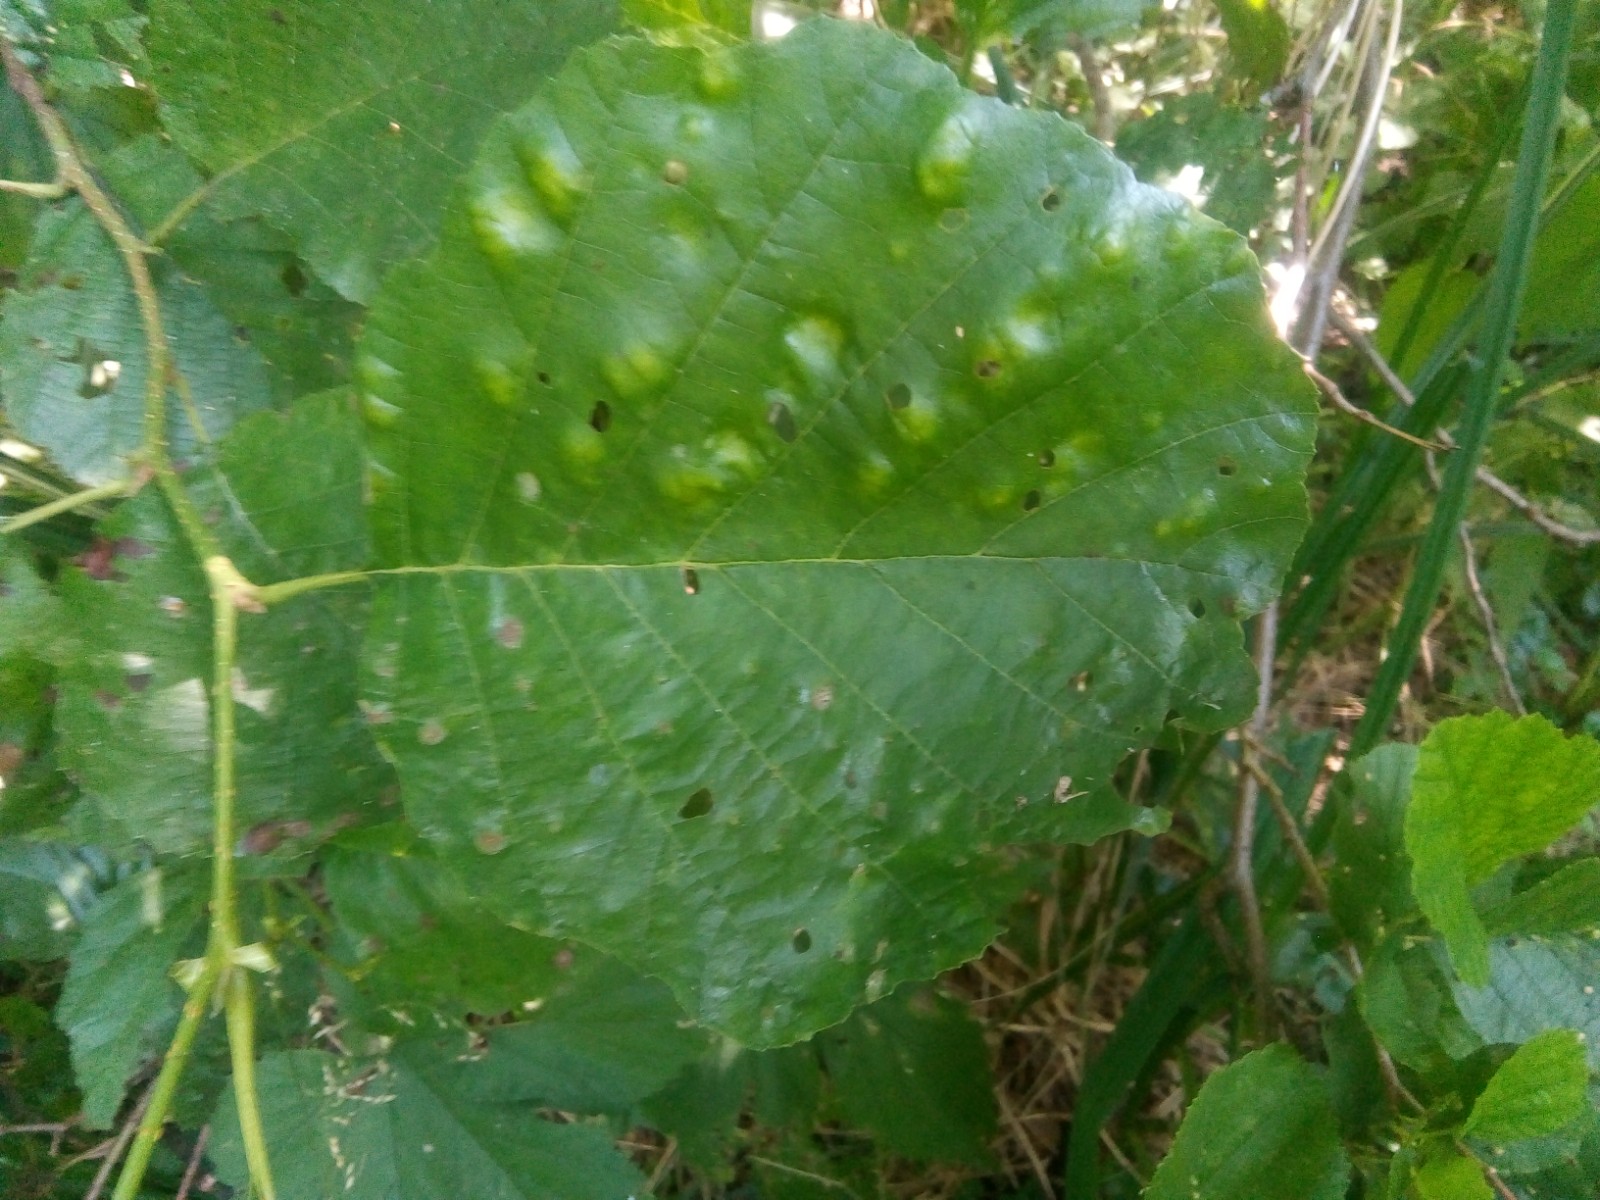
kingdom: Fungi
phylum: Ascomycota
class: Taphrinomycetes
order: Taphrinales
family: Taphrinaceae
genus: Taphrina
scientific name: Taphrina sadebeckii
